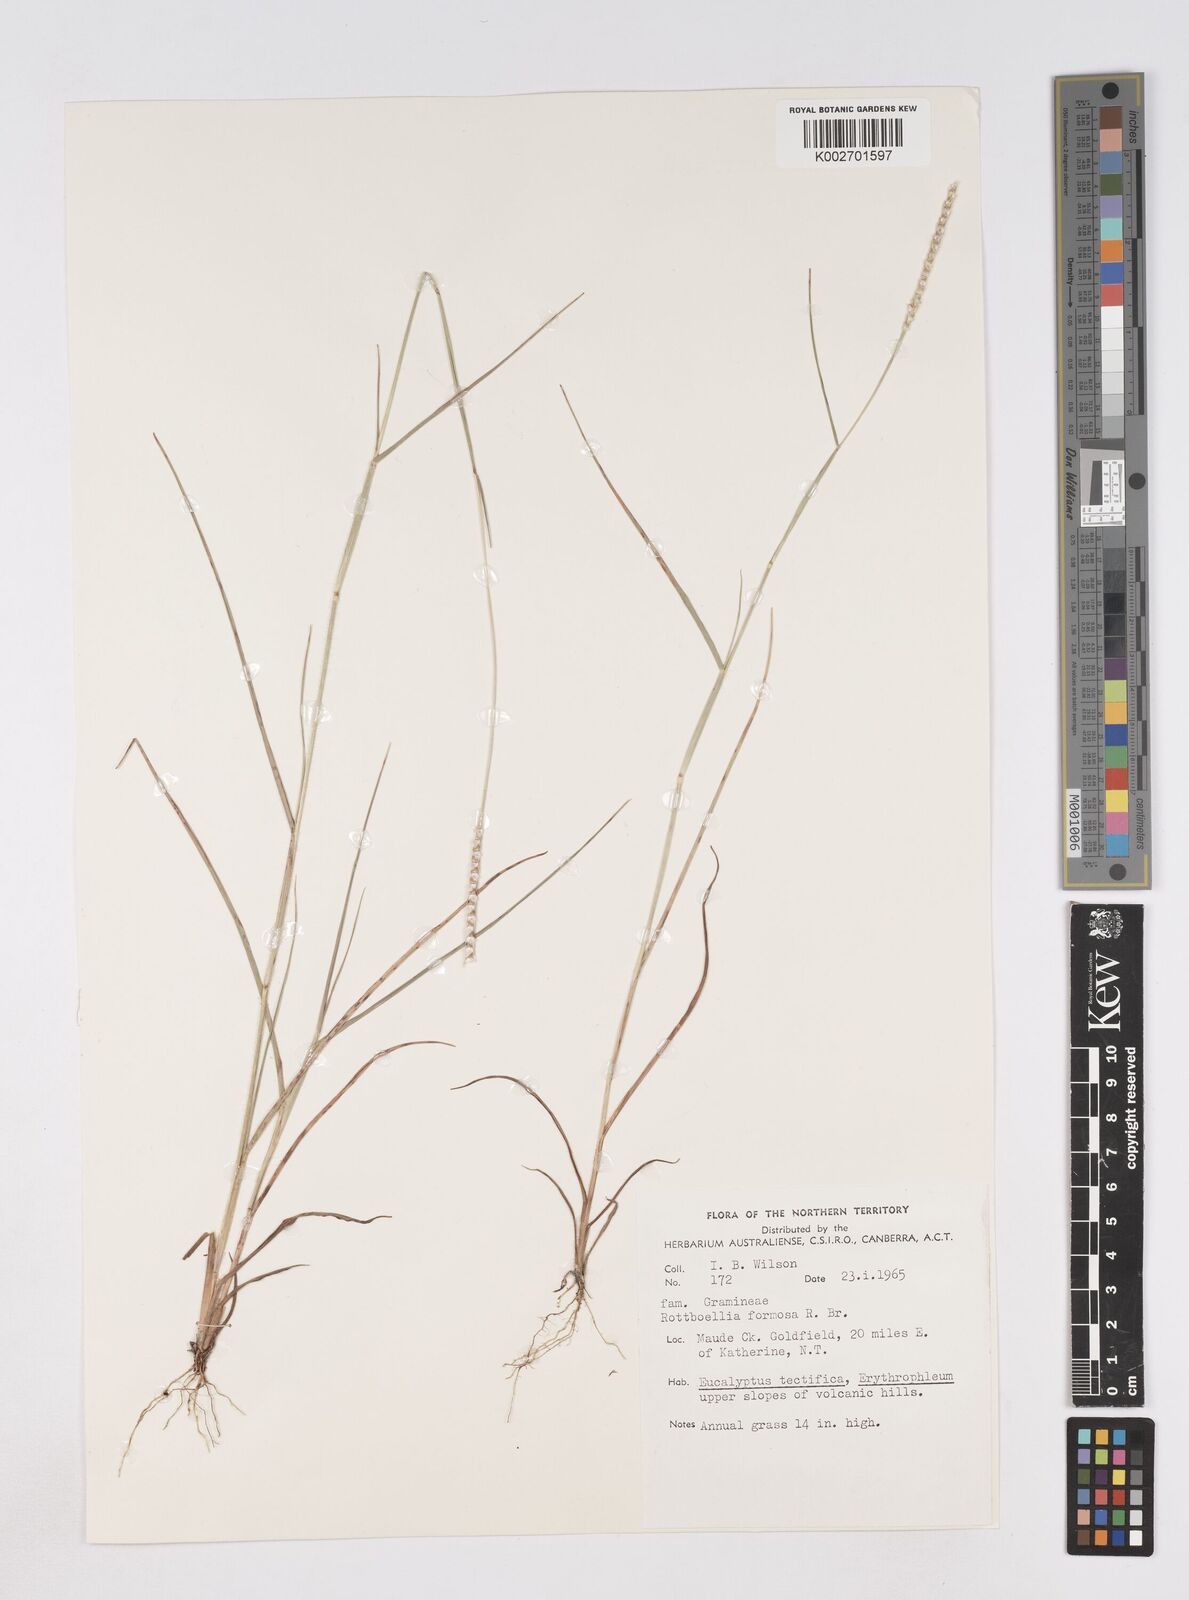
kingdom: Plantae
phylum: Tracheophyta
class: Liliopsida
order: Poales
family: Poaceae
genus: Heteropholis
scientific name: Heteropholis
